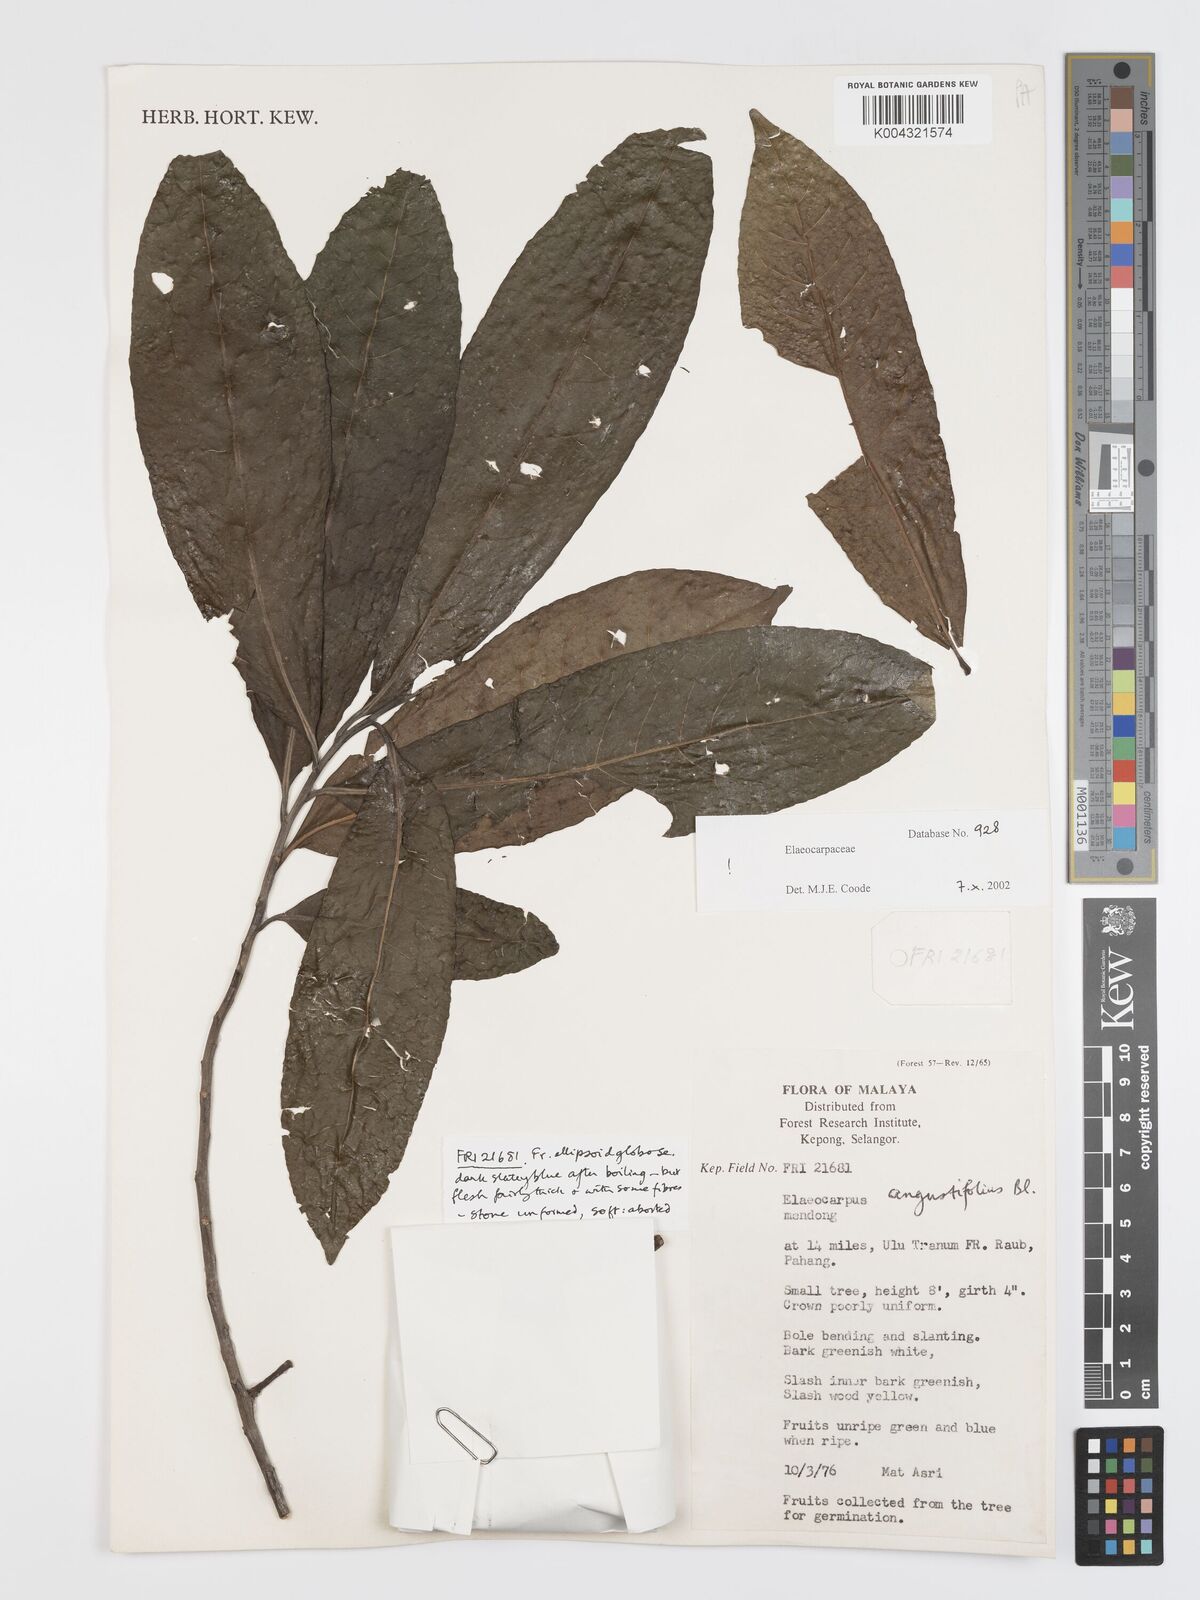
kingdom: Plantae
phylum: Tracheophyta
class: Magnoliopsida
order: Oxalidales
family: Elaeocarpaceae
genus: Elaeocarpus
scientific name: Elaeocarpus sphaericus
